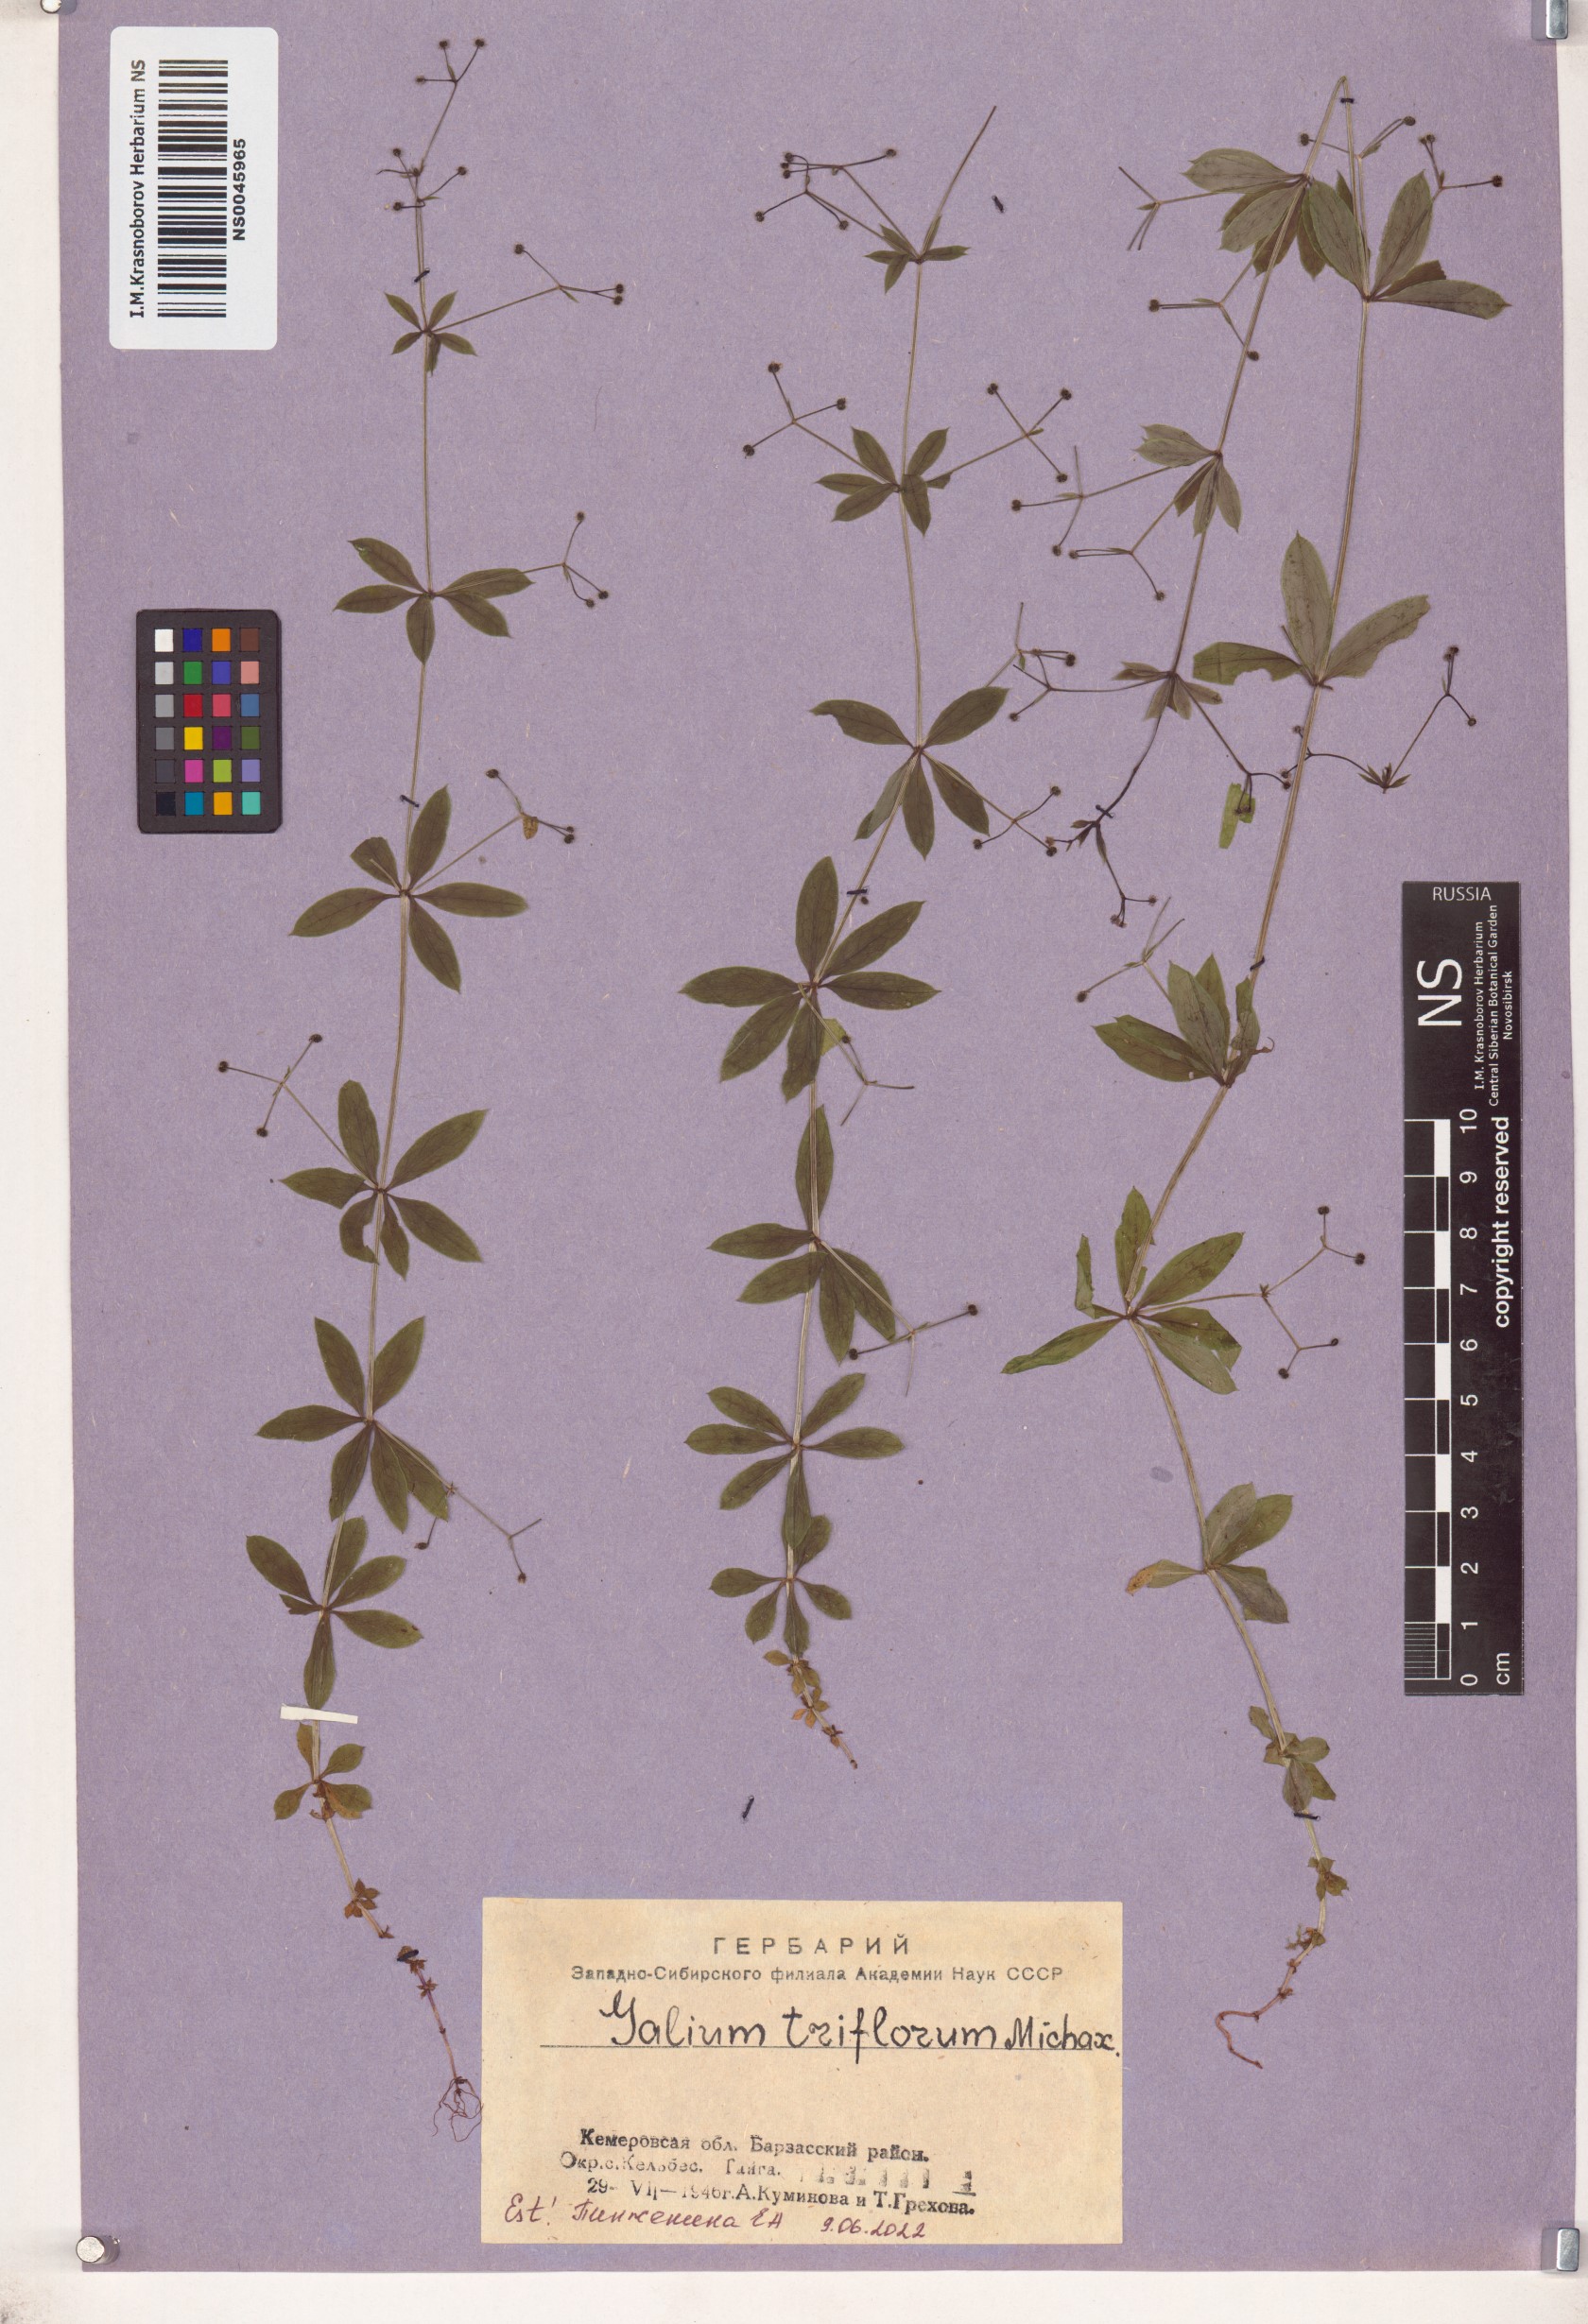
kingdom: Plantae
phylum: Tracheophyta
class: Magnoliopsida
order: Gentianales
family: Rubiaceae
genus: Galium
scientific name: Galium triflorum
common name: Fragrant bedstraw
